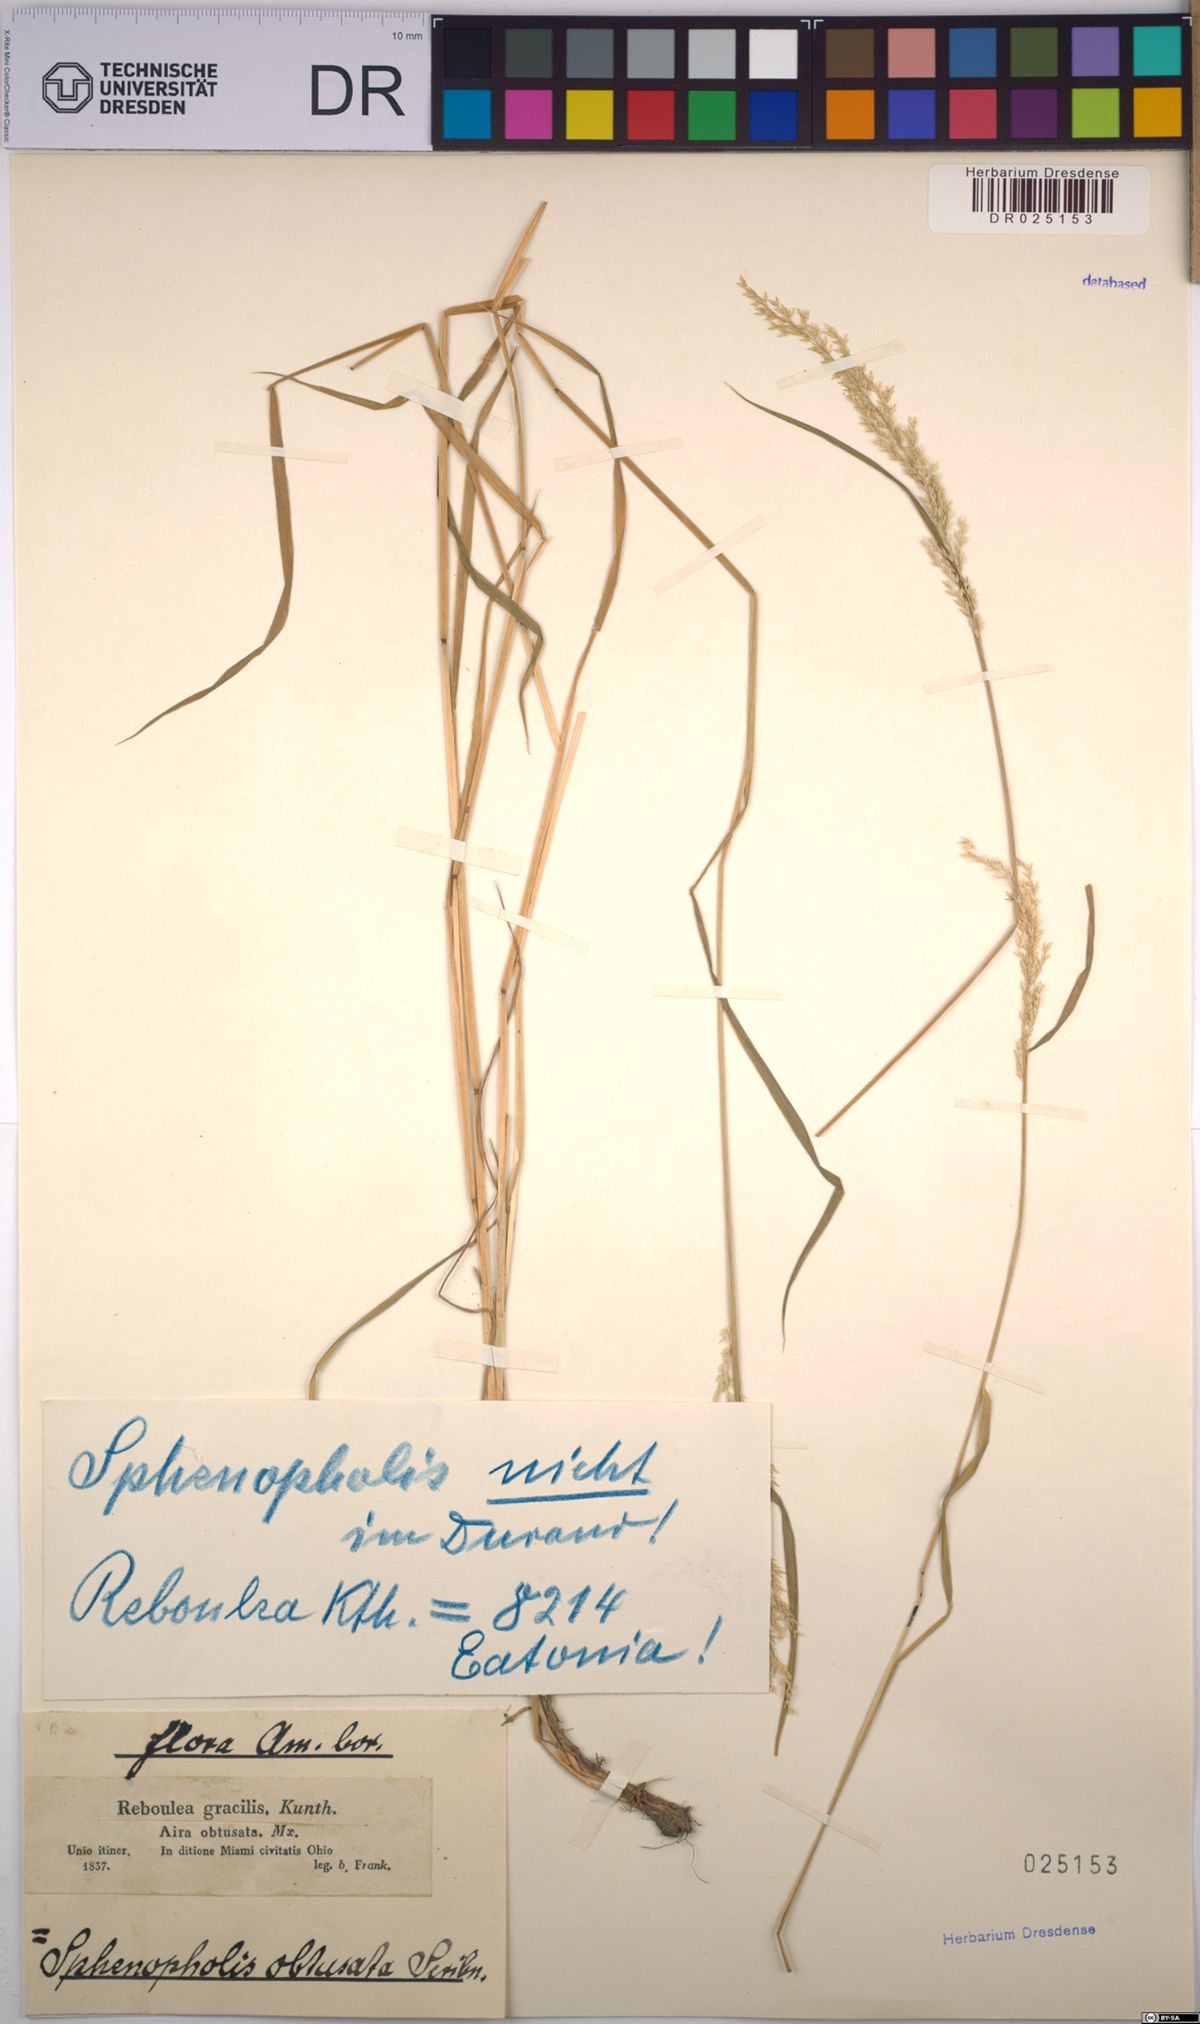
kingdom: Plantae
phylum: Tracheophyta
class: Liliopsida
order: Poales
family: Poaceae
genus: Sphenopholis
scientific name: Sphenopholis obtusata
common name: Prairie grass
